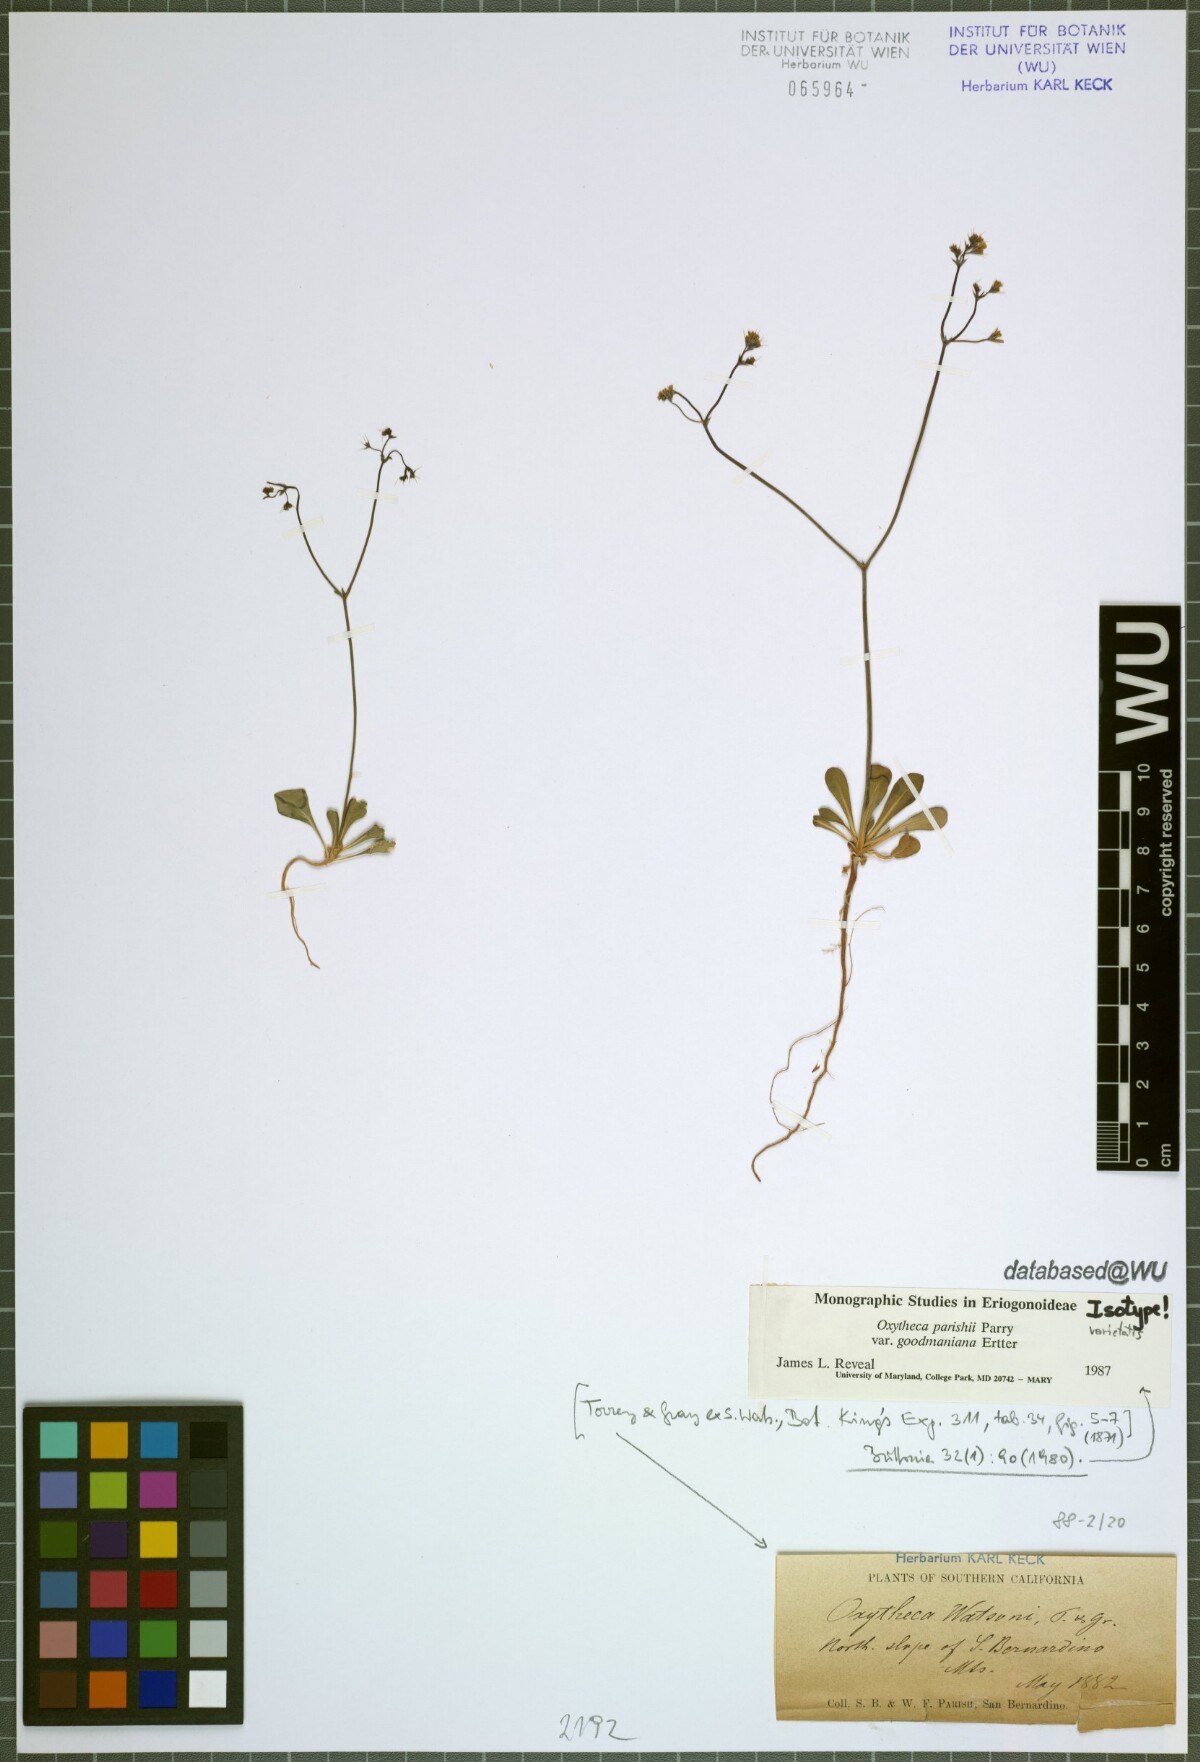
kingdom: Plantae
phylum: Tracheophyta
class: Magnoliopsida
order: Caryophyllales
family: Polygonaceae
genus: Acanthoscyphus
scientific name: Acanthoscyphus parishii
